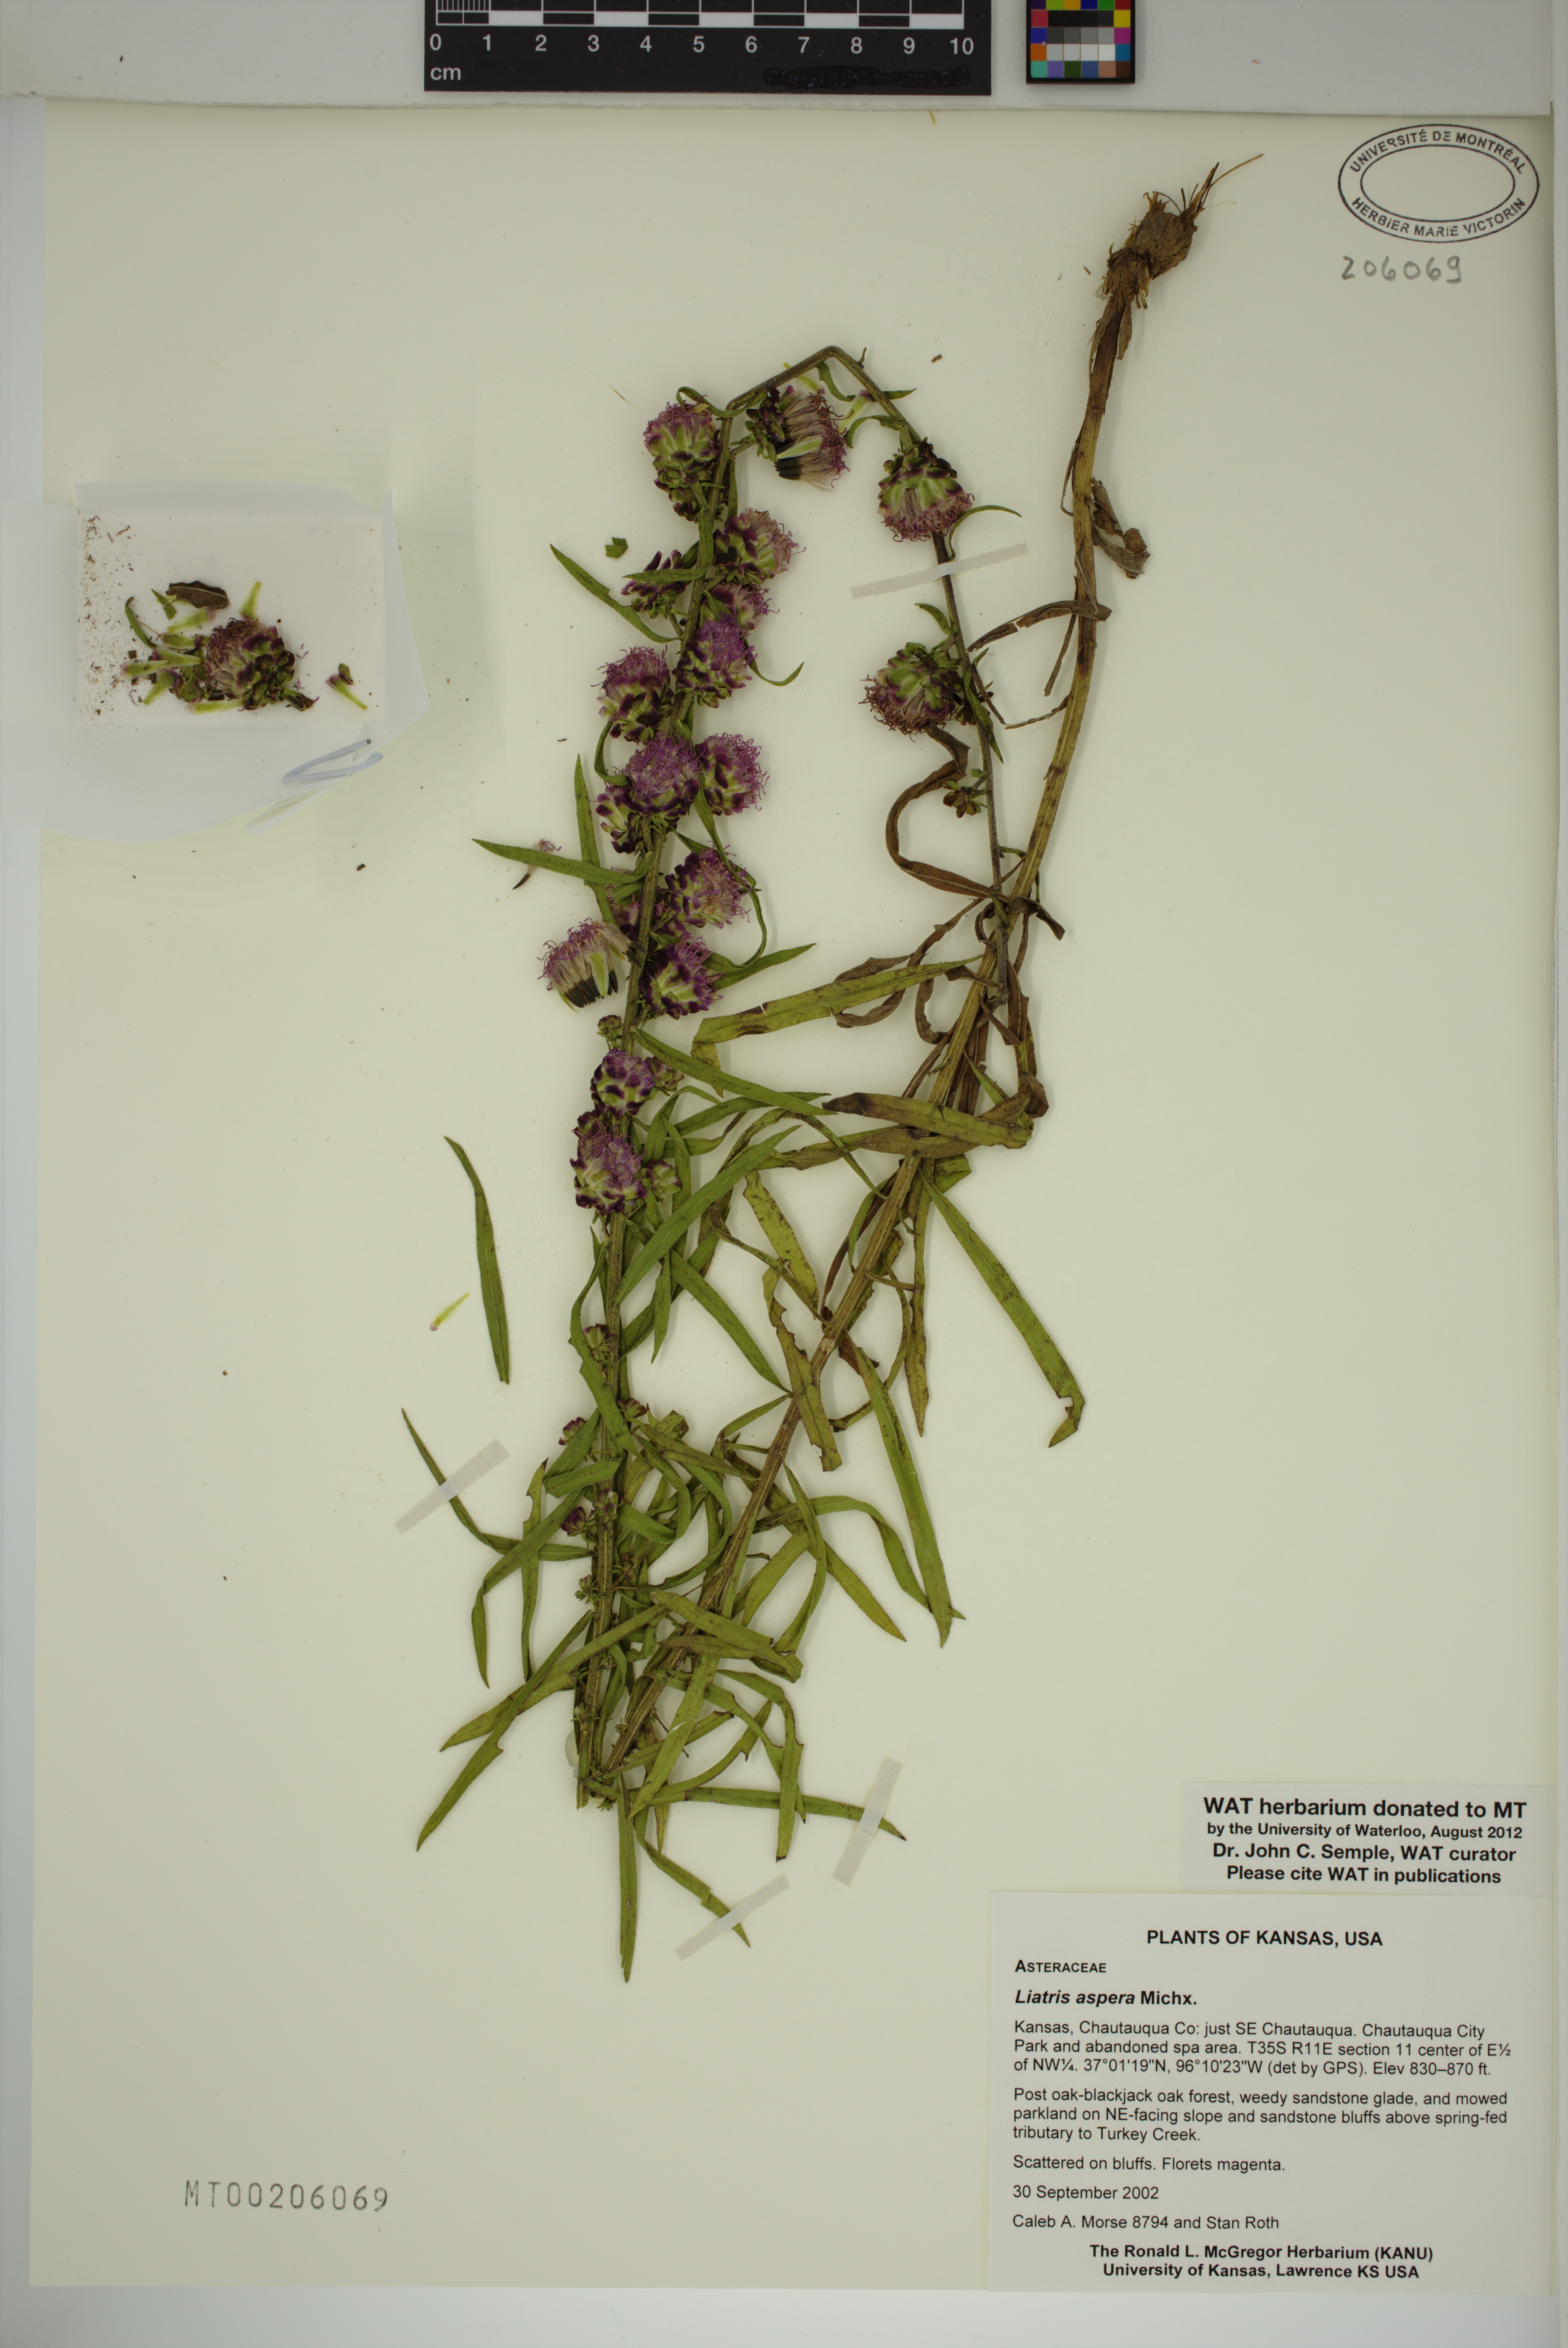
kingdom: Plantae
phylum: Tracheophyta
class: Magnoliopsida
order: Asterales
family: Asteraceae
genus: Liatris
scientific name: Liatris aspera
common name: Lacerate blazing-star
